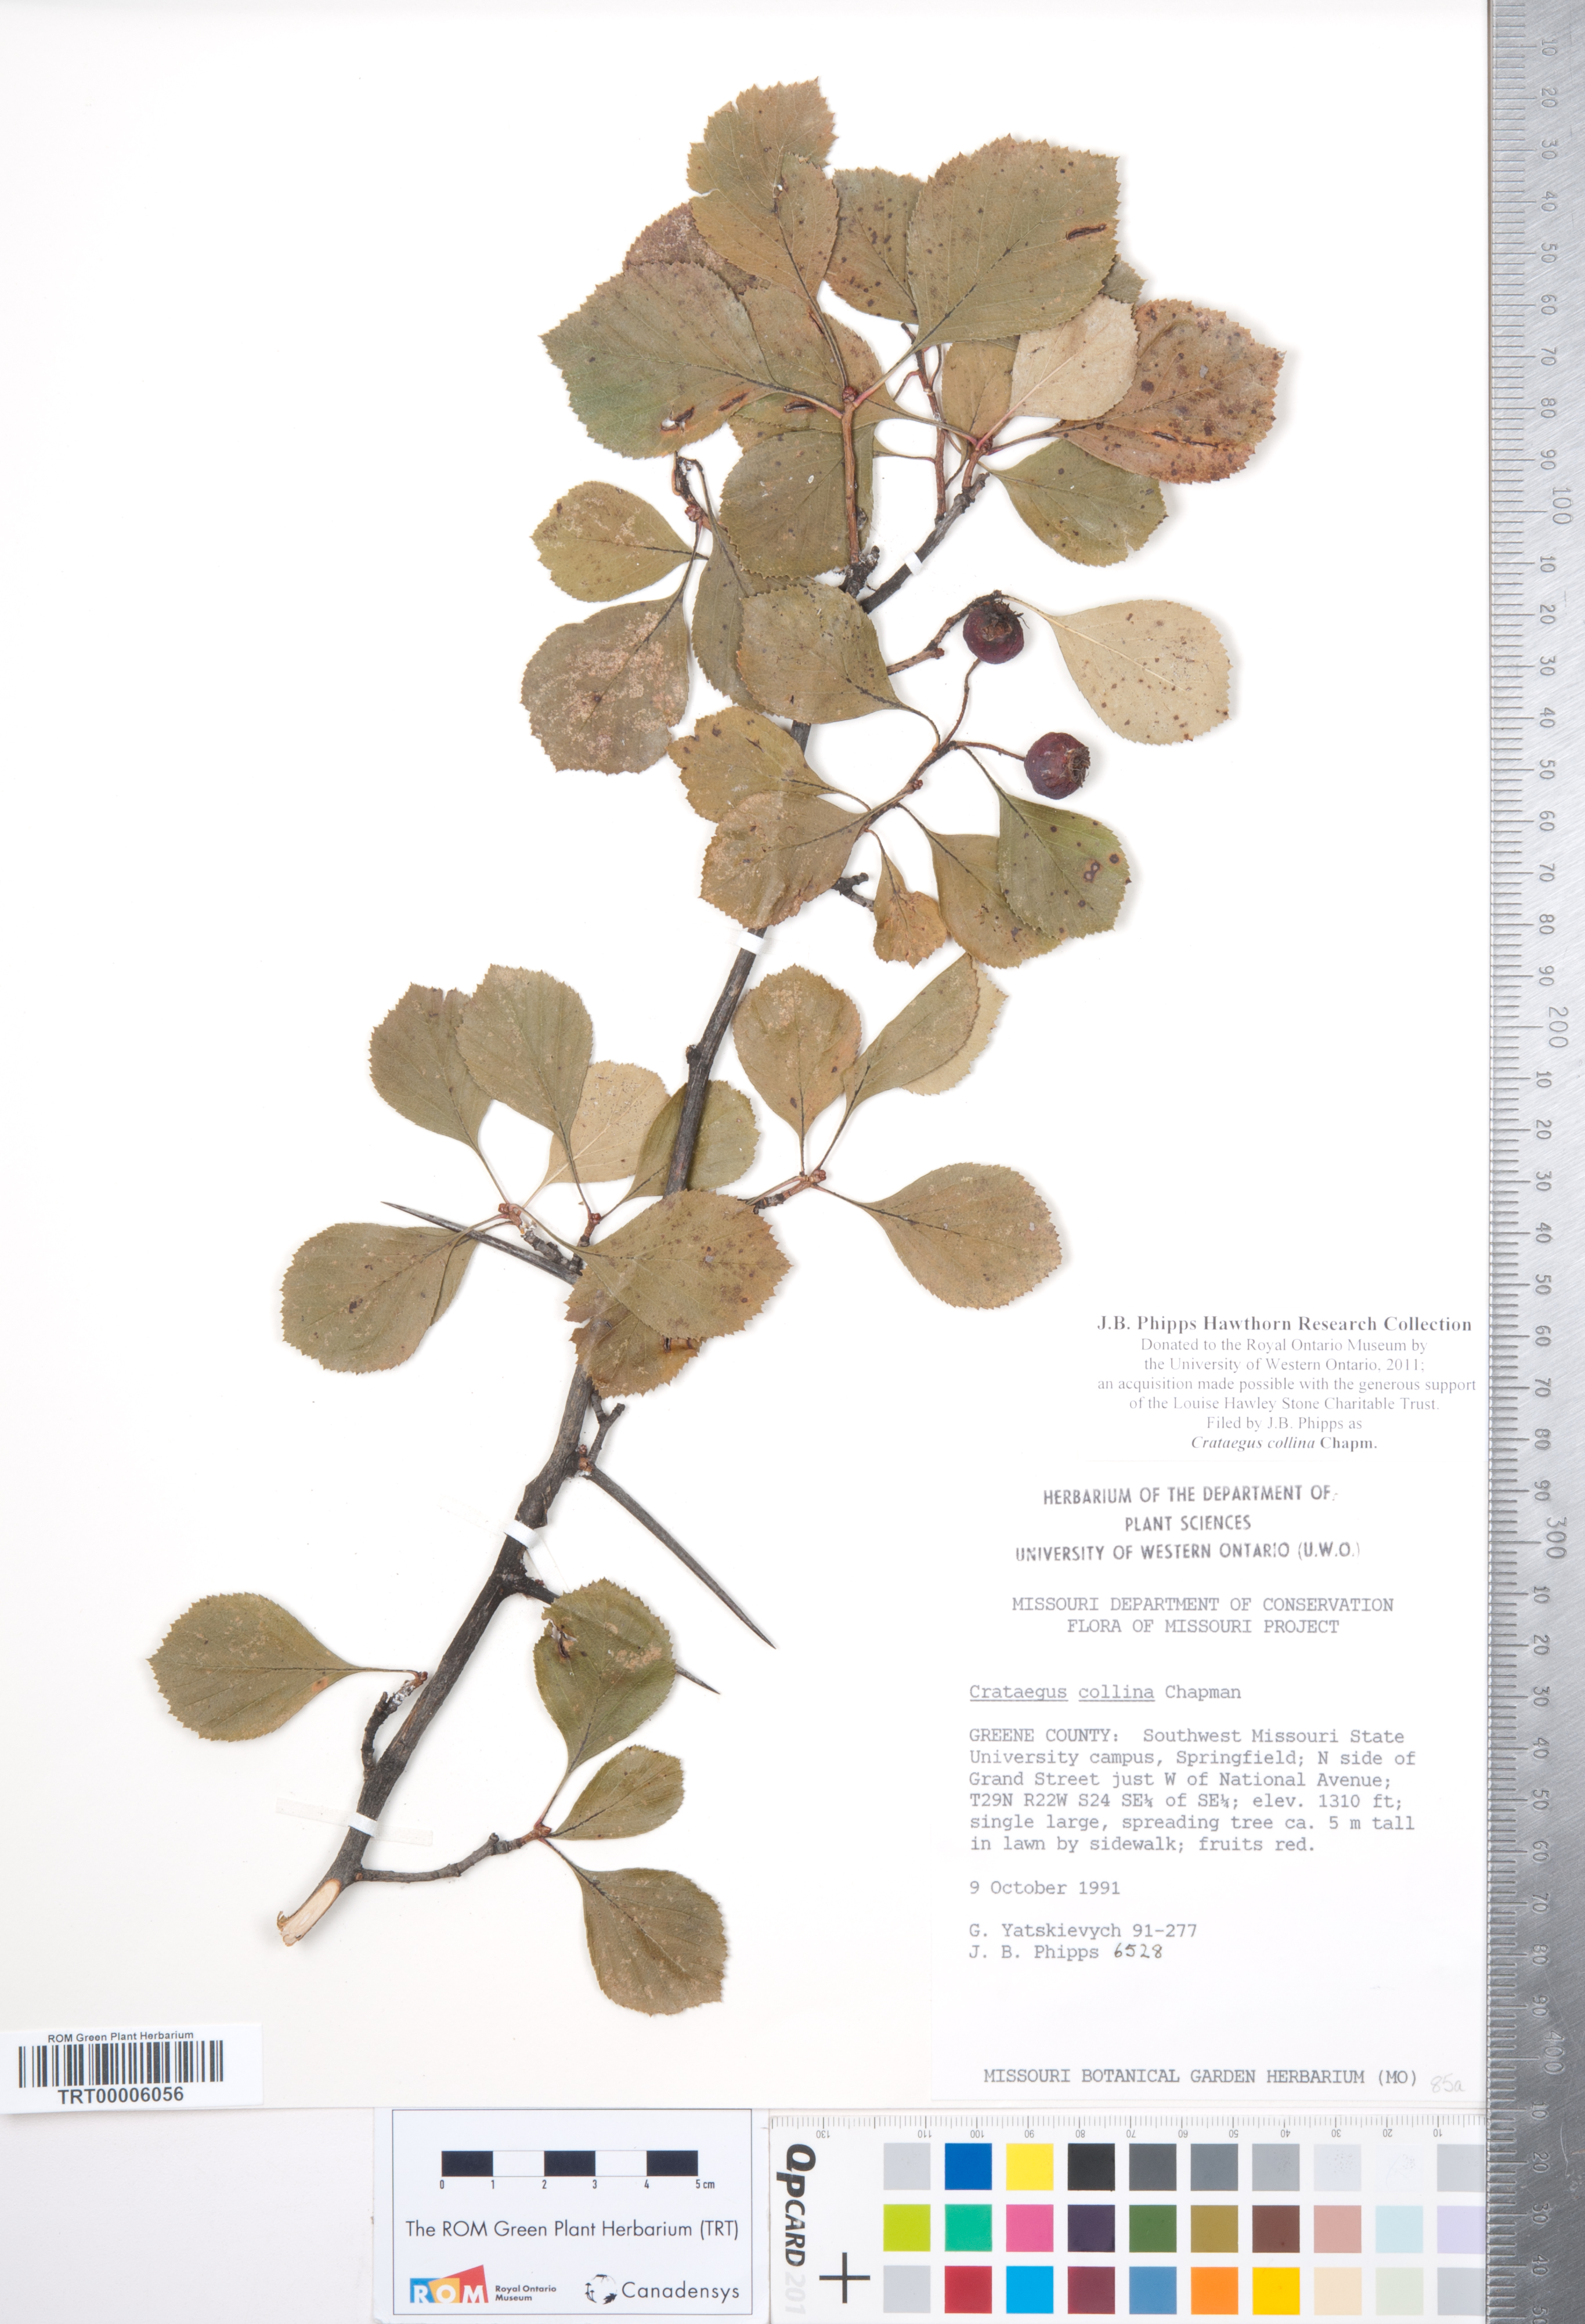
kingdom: Plantae
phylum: Tracheophyta
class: Magnoliopsida
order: Rosales
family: Rosaceae
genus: Crataegus
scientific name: Crataegus collina
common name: Hillside hawthorn
